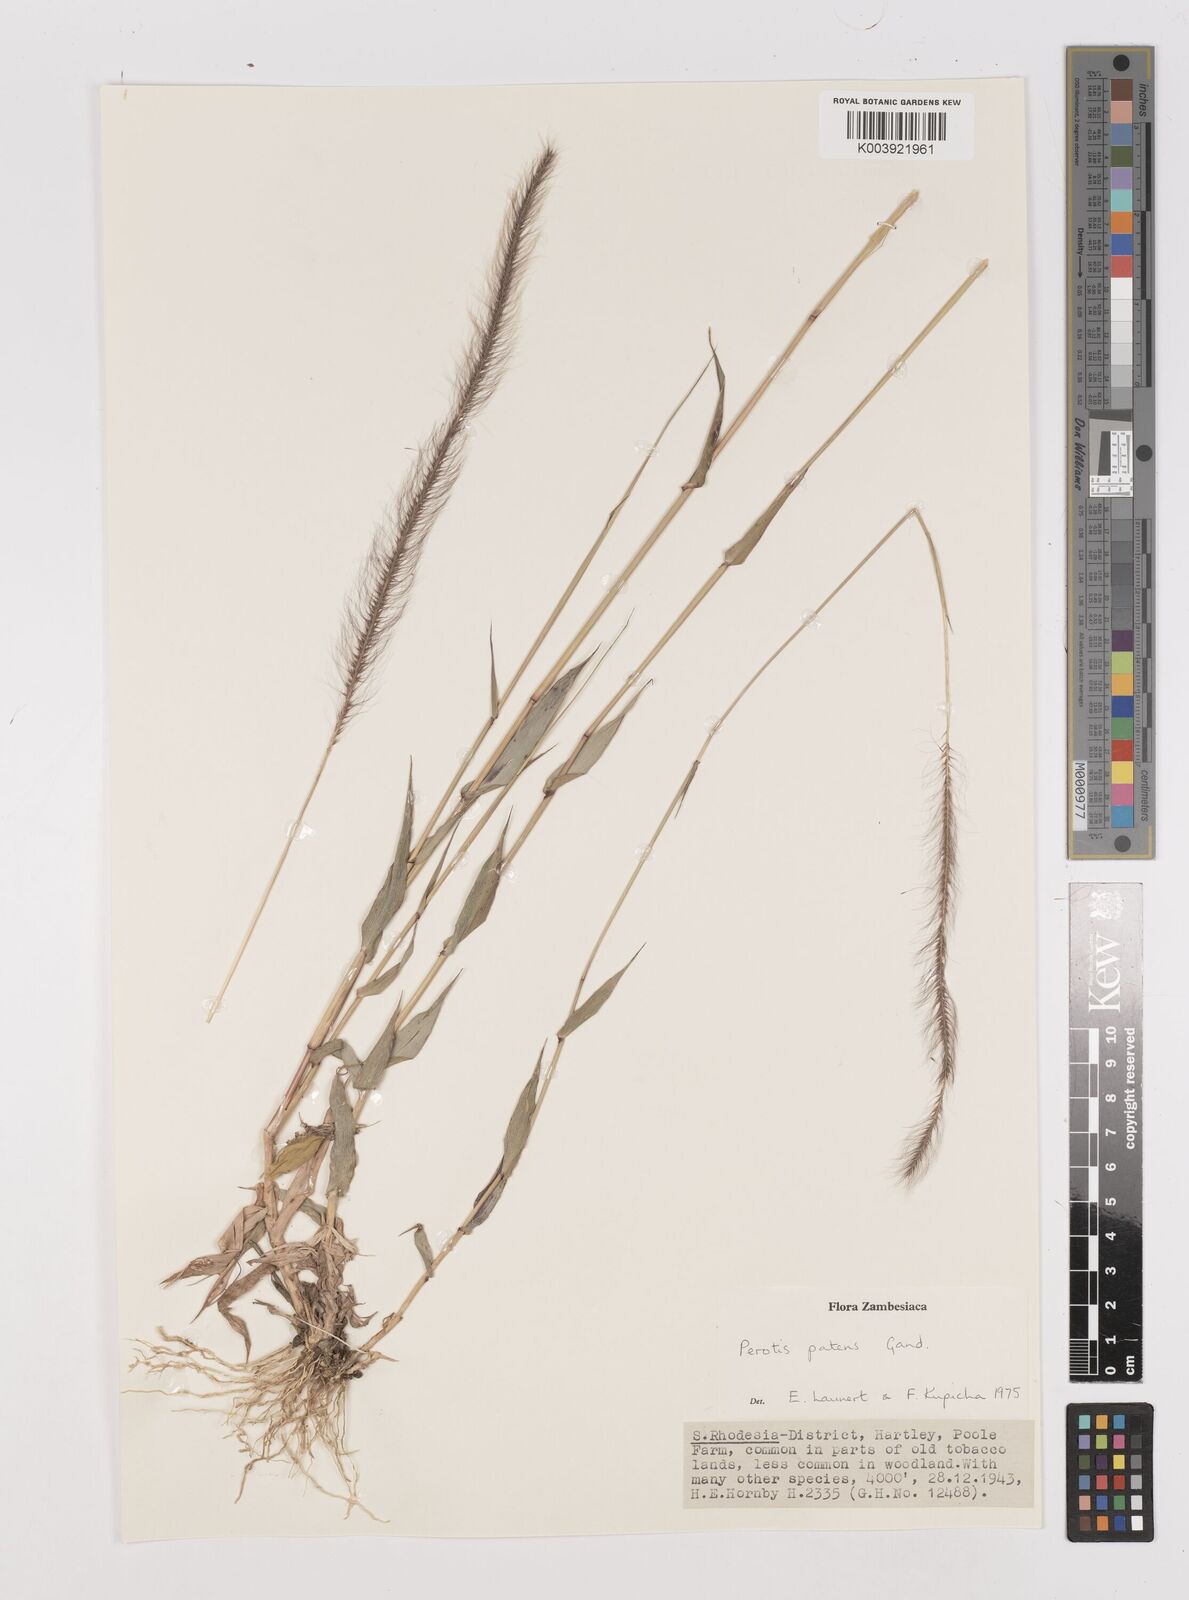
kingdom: Plantae
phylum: Tracheophyta
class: Liliopsida
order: Poales
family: Poaceae
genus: Perotis
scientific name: Perotis patens
